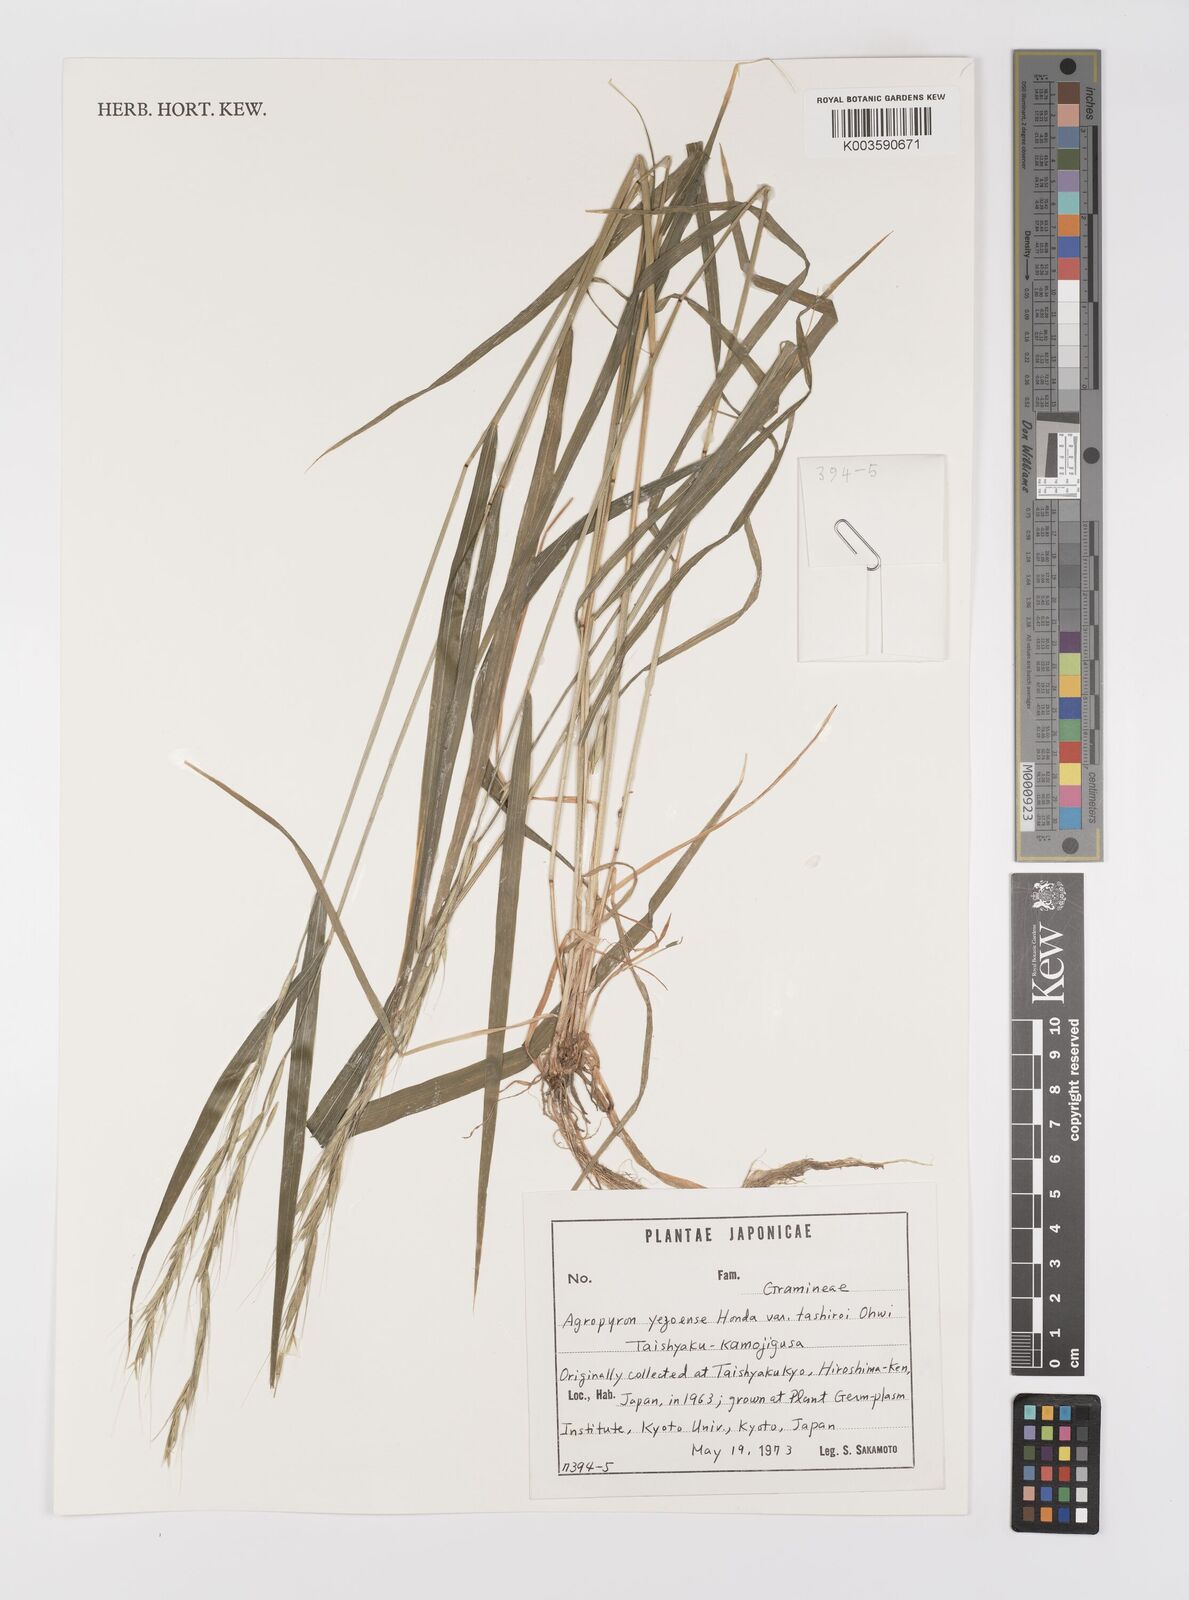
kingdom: Plantae
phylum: Tracheophyta
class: Liliopsida
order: Poales
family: Poaceae
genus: Elymus
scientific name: Elymus nipponicus
